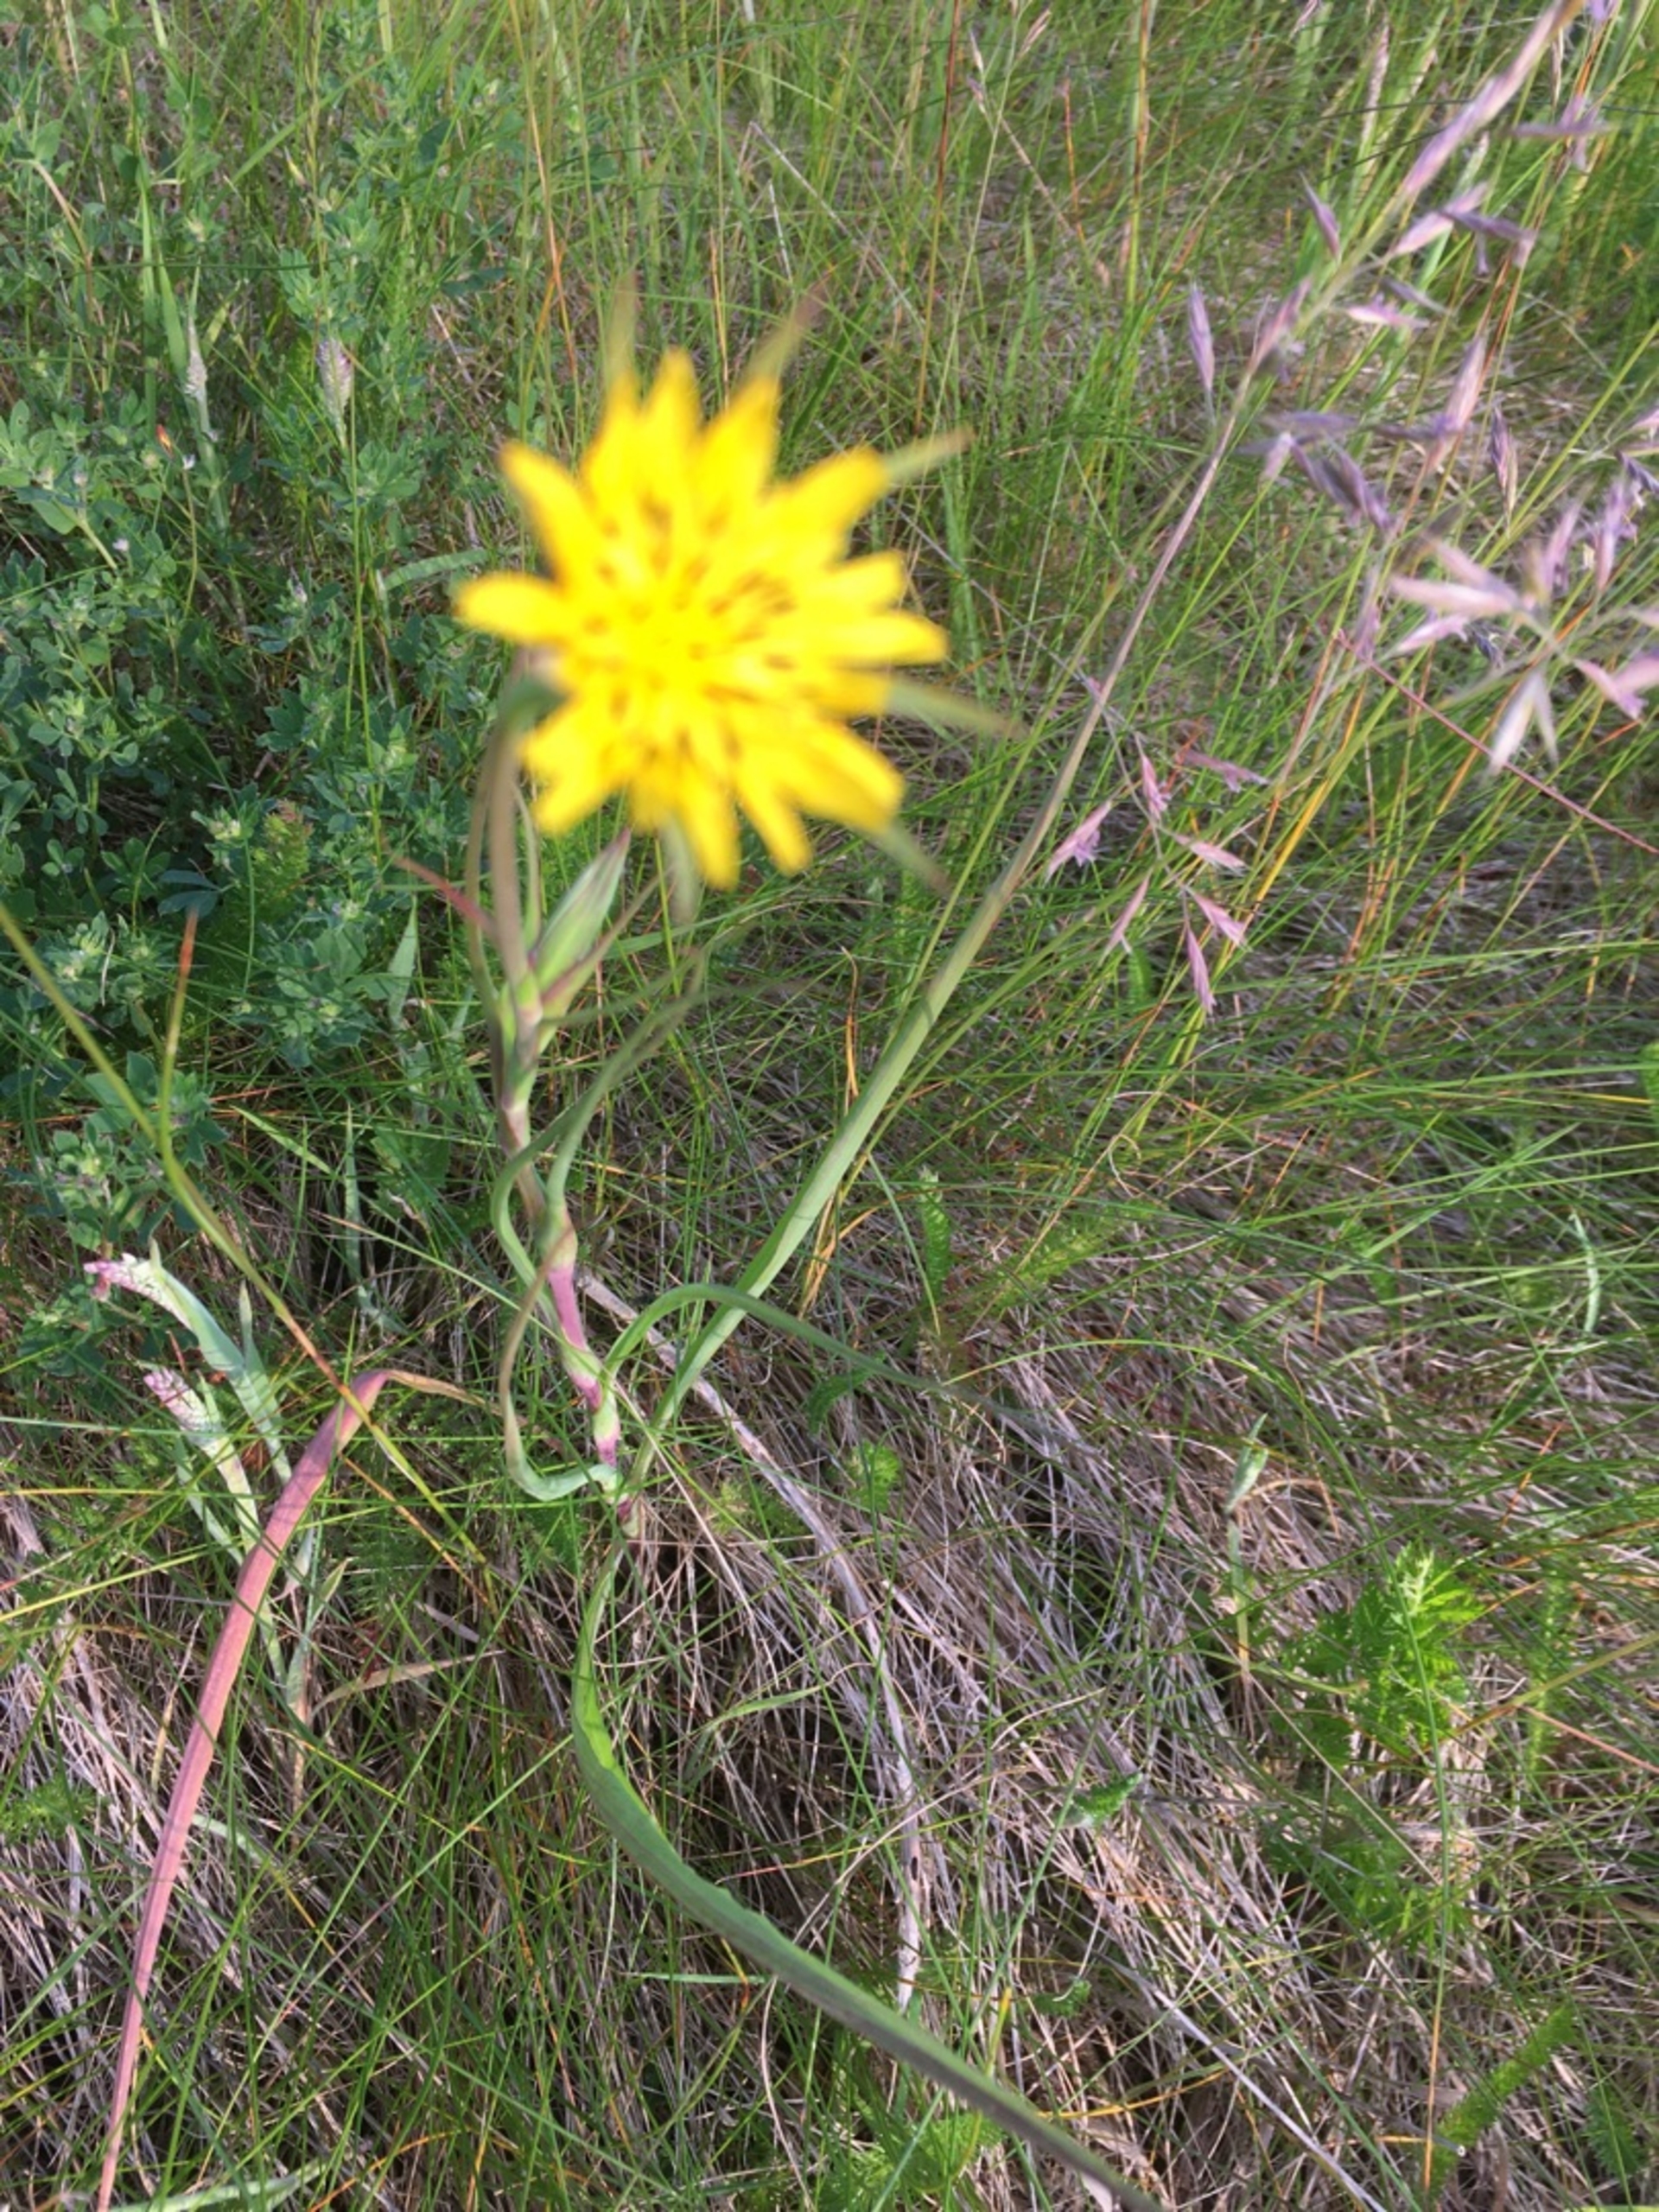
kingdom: Plantae
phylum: Tracheophyta
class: Magnoliopsida
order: Asterales
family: Asteraceae
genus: Tragopogon
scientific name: Tragopogon pratensis
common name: Gedeskæg
